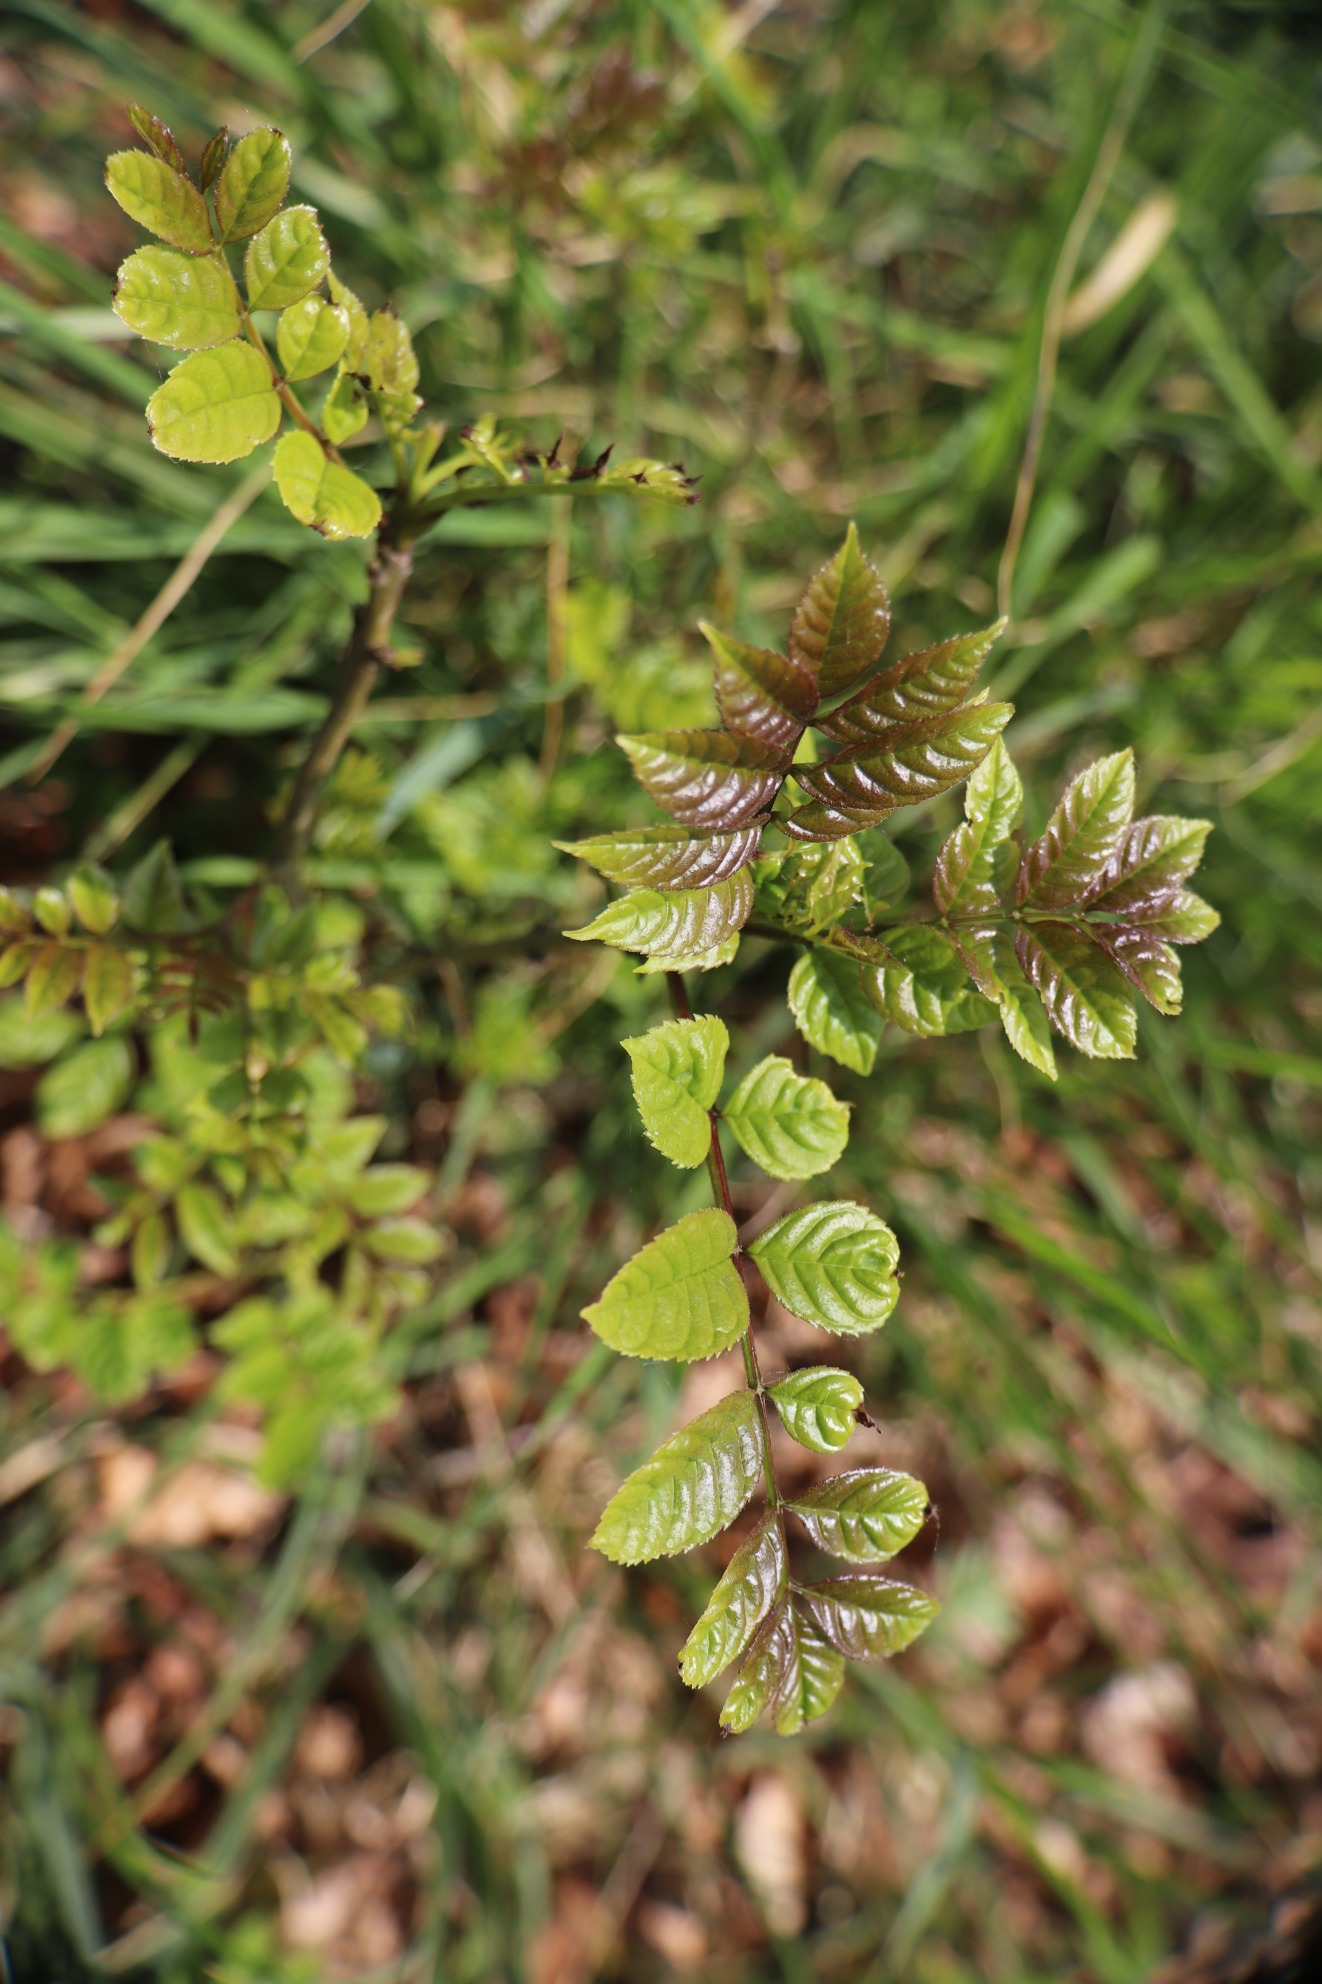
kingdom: Plantae
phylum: Tracheophyta
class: Magnoliopsida
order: Lamiales
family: Oleaceae
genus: Fraxinus
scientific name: Fraxinus excelsior
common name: Ask
